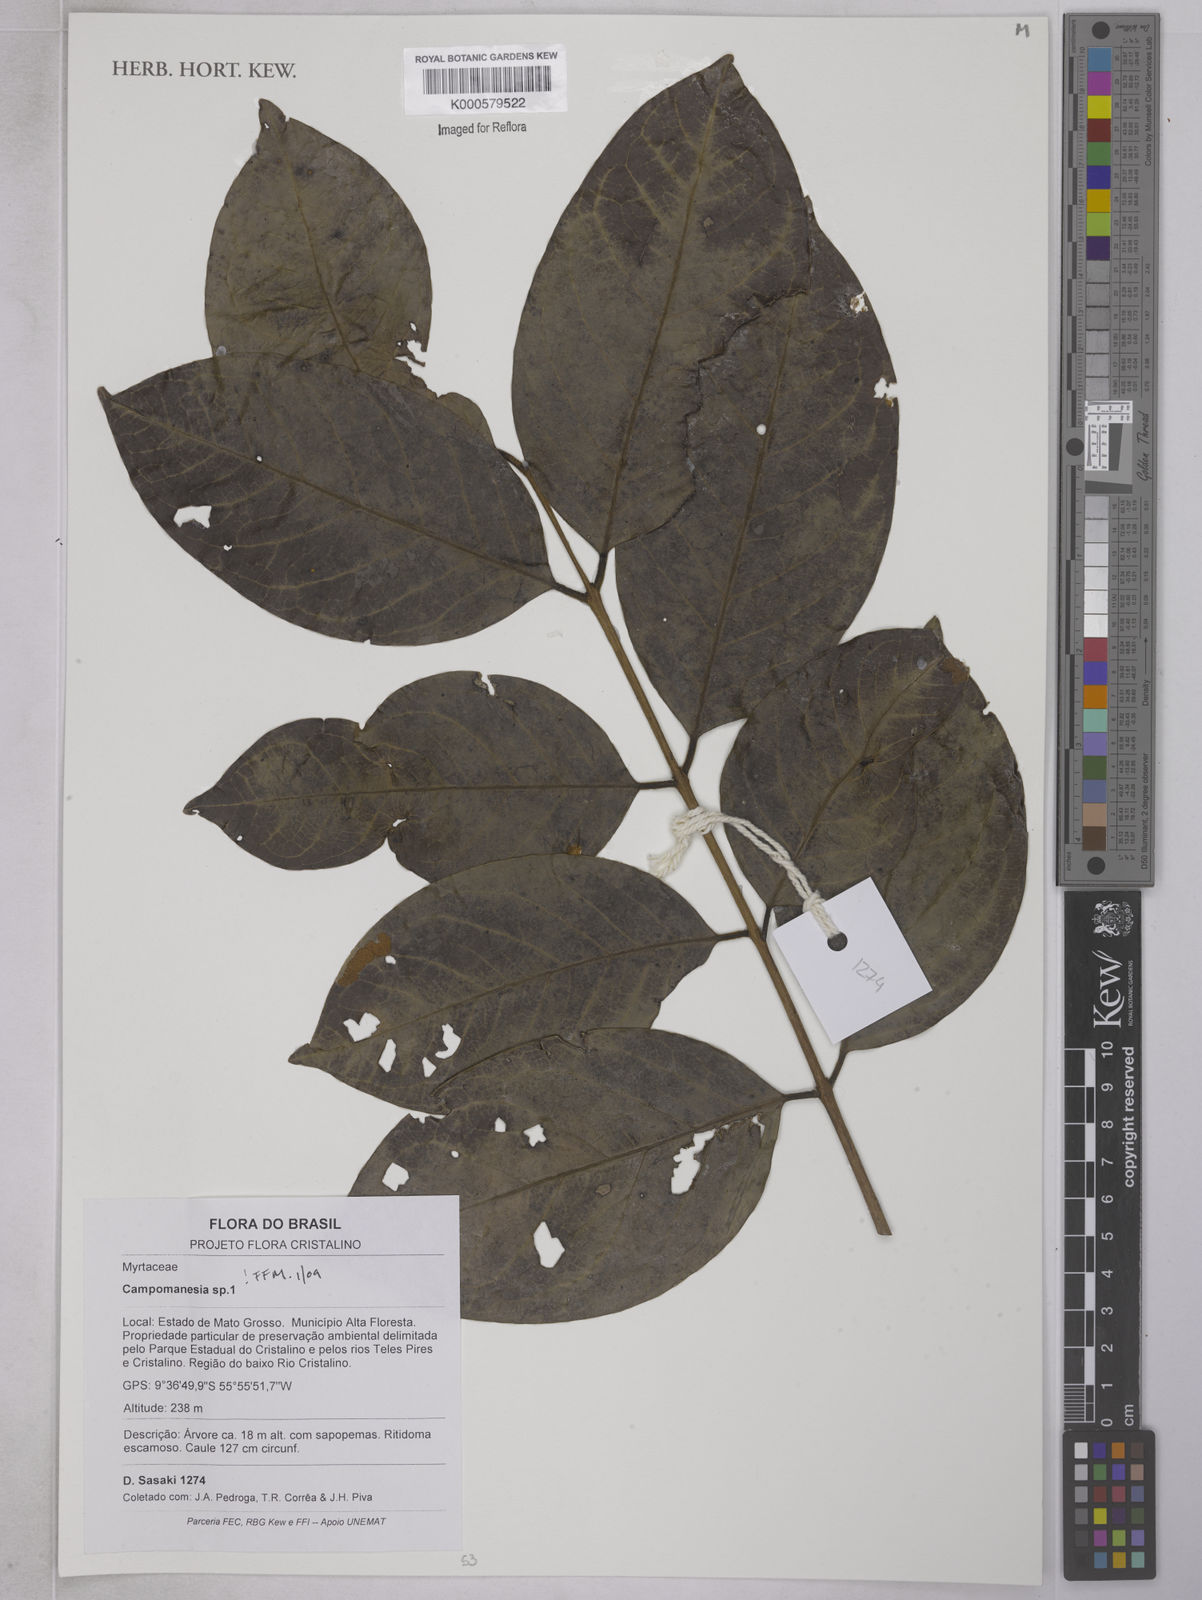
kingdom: Plantae
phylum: Tracheophyta
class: Magnoliopsida
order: Myrtales
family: Myrtaceae
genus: Campomanesia
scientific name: Campomanesia
